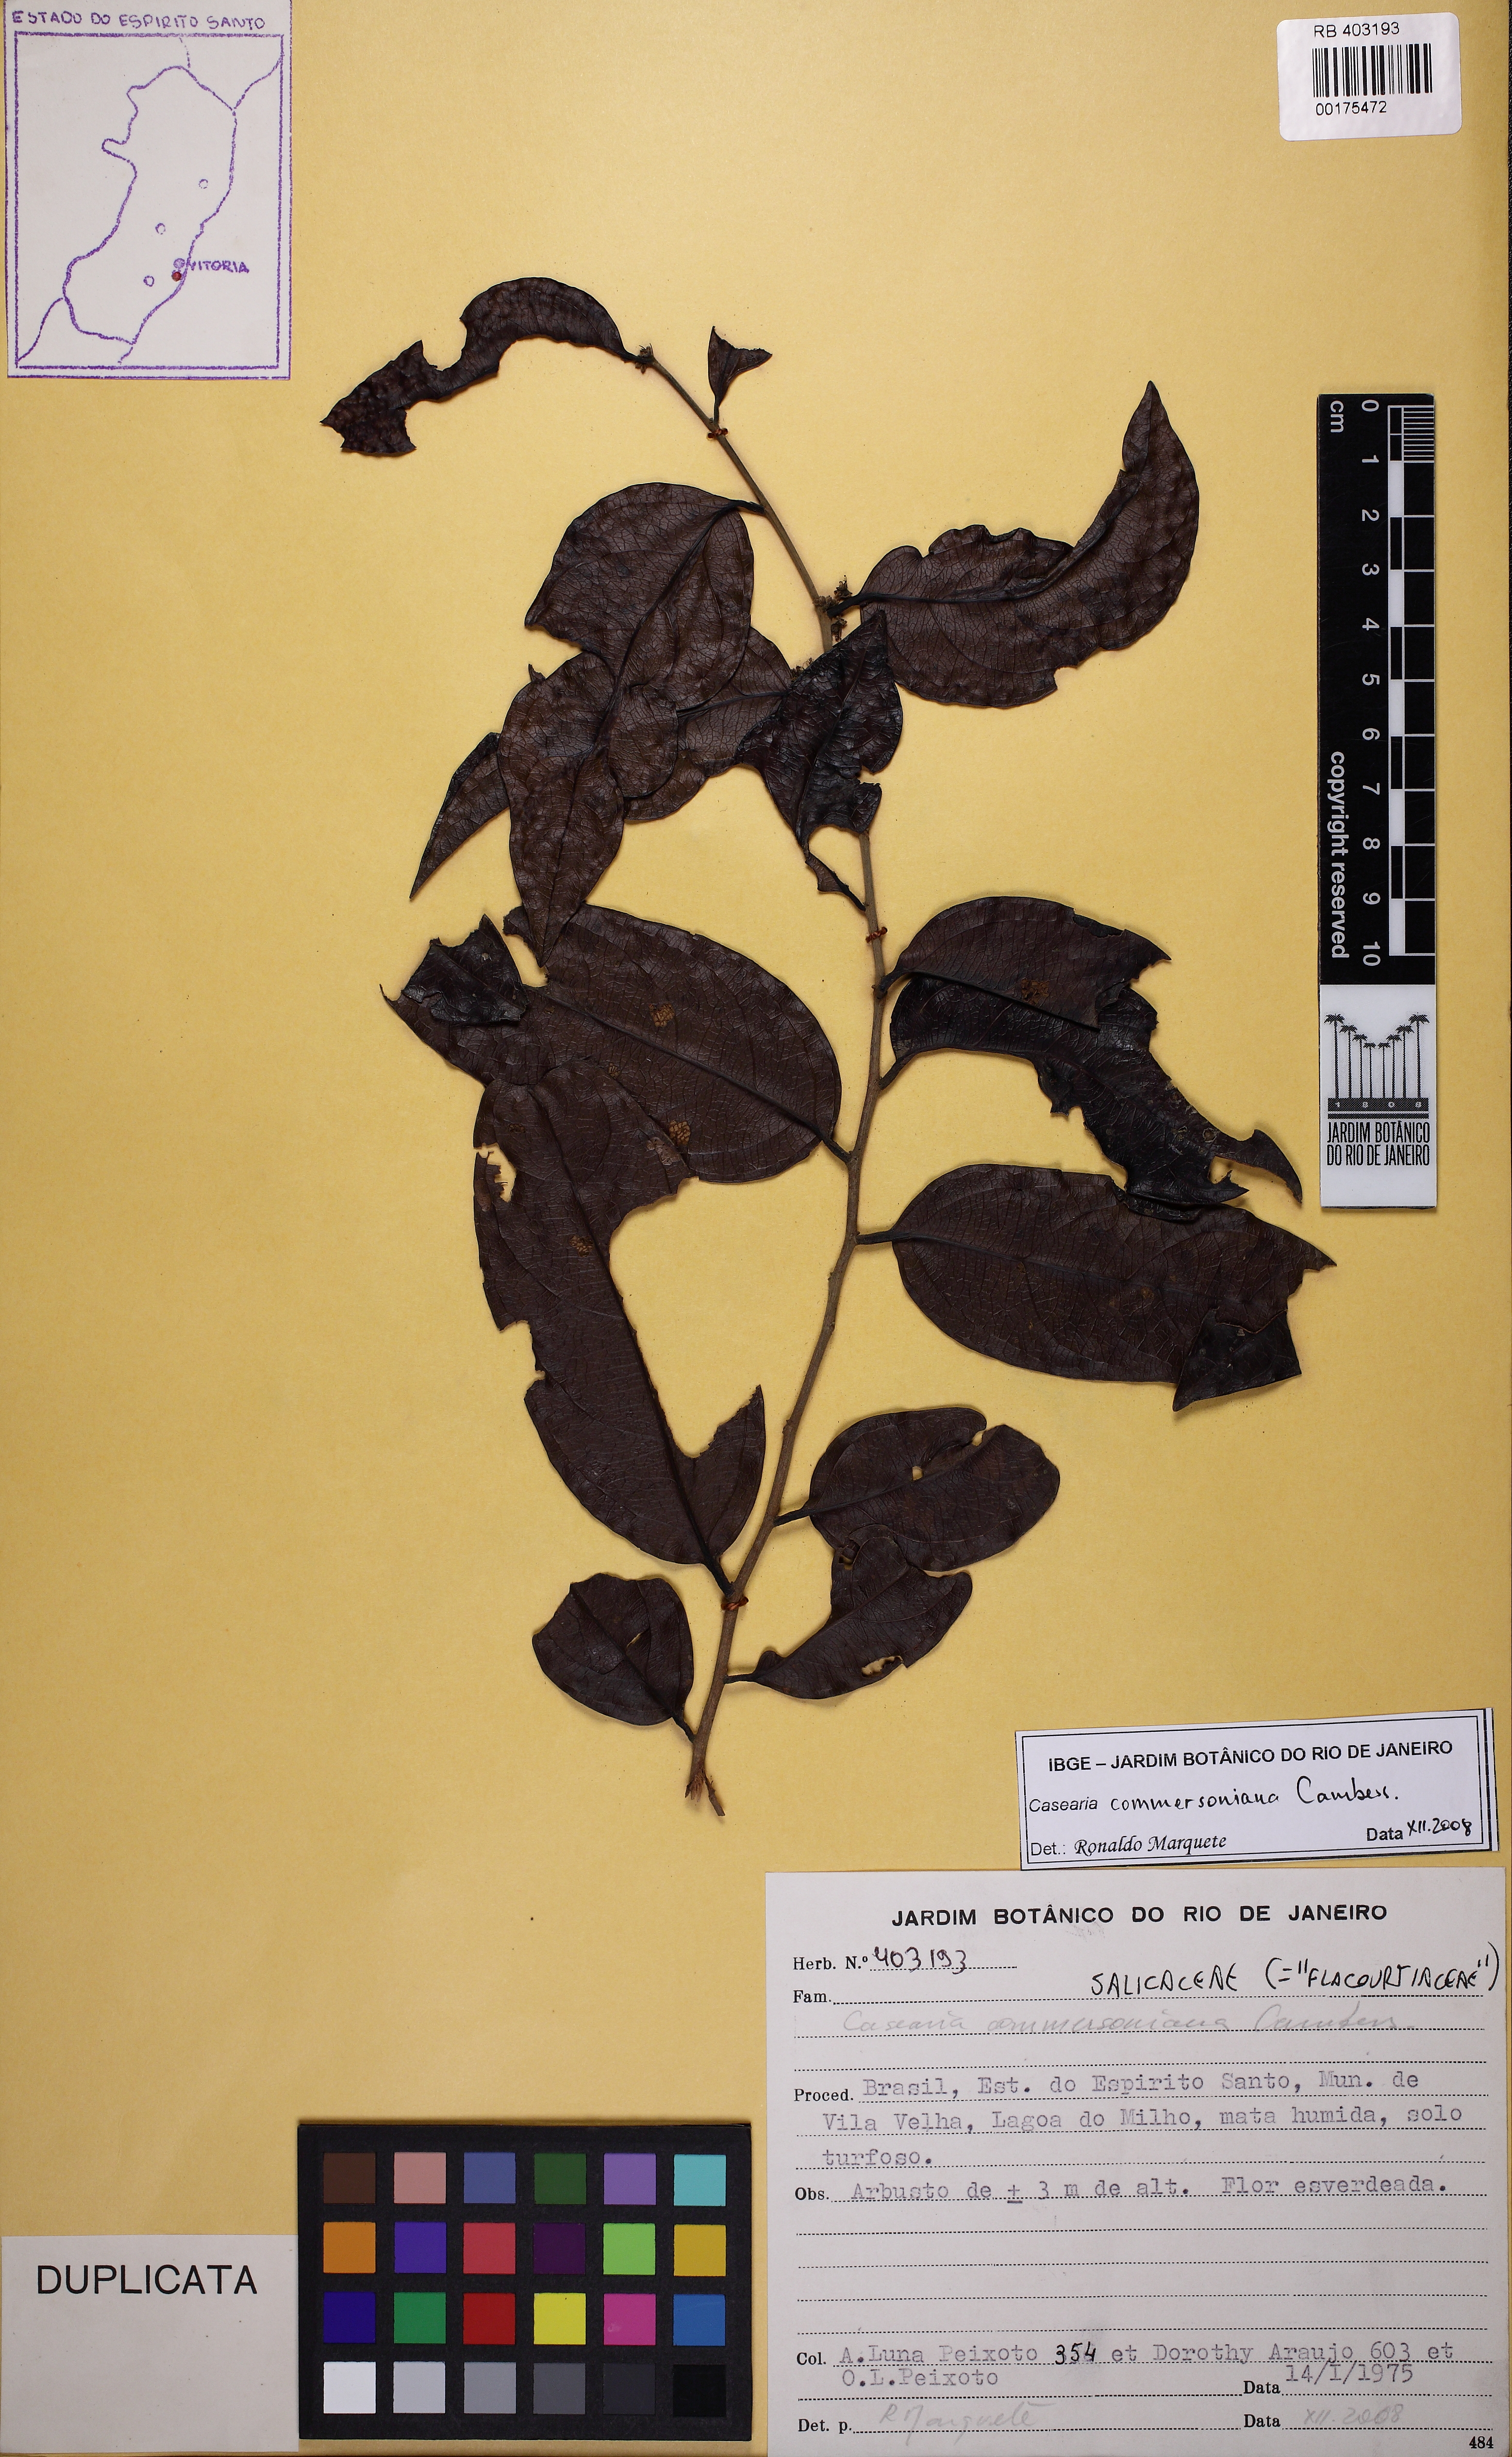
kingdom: Plantae
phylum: Tracheophyta
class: Magnoliopsida
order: Malpighiales
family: Salicaceae
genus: Piparea
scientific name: Piparea dentata
